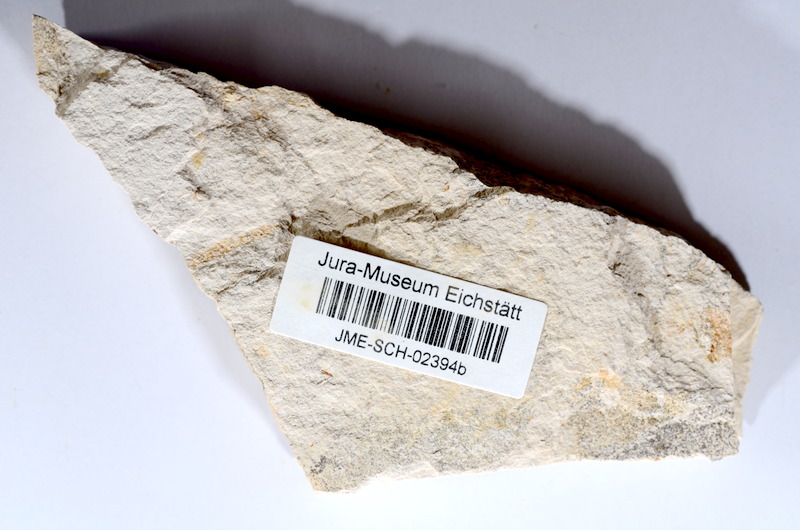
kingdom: Animalia
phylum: Chordata
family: Allothrissopidae
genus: Allothrissops
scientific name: Allothrissops
